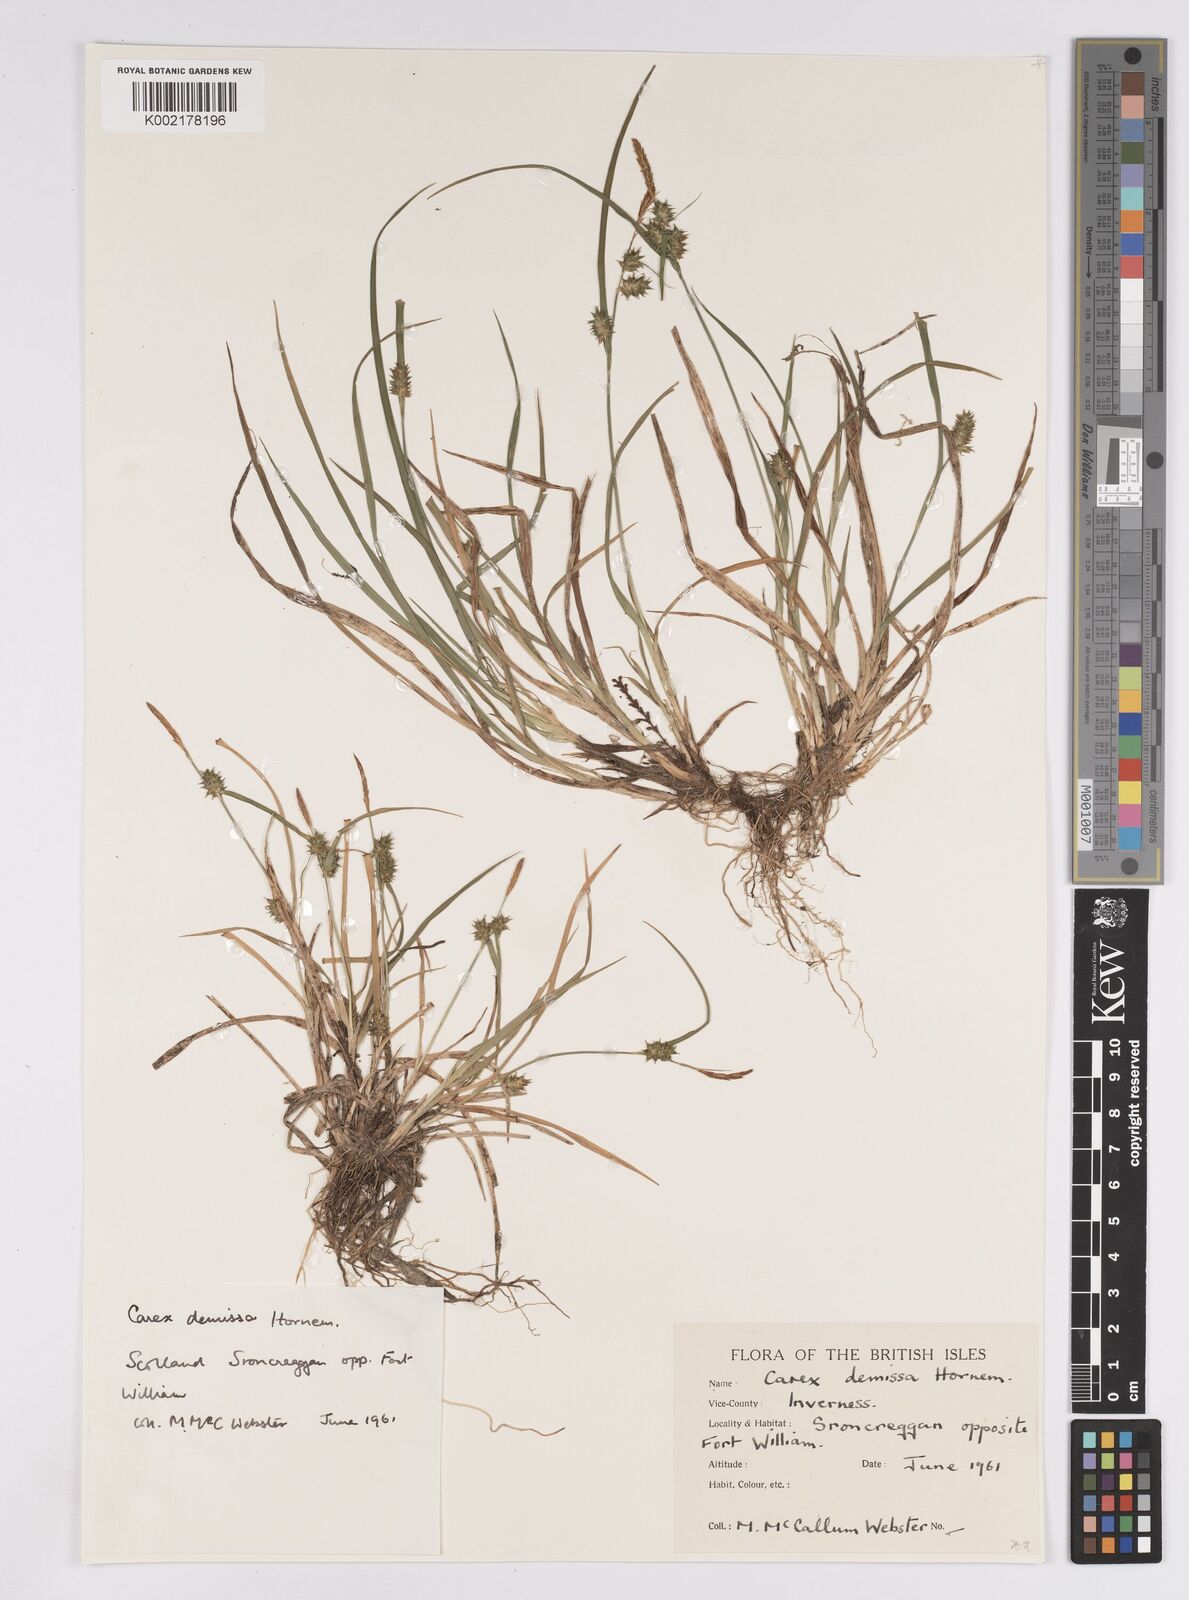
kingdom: Plantae
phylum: Tracheophyta
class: Liliopsida
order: Poales
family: Cyperaceae
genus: Carex
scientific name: Carex demissa
